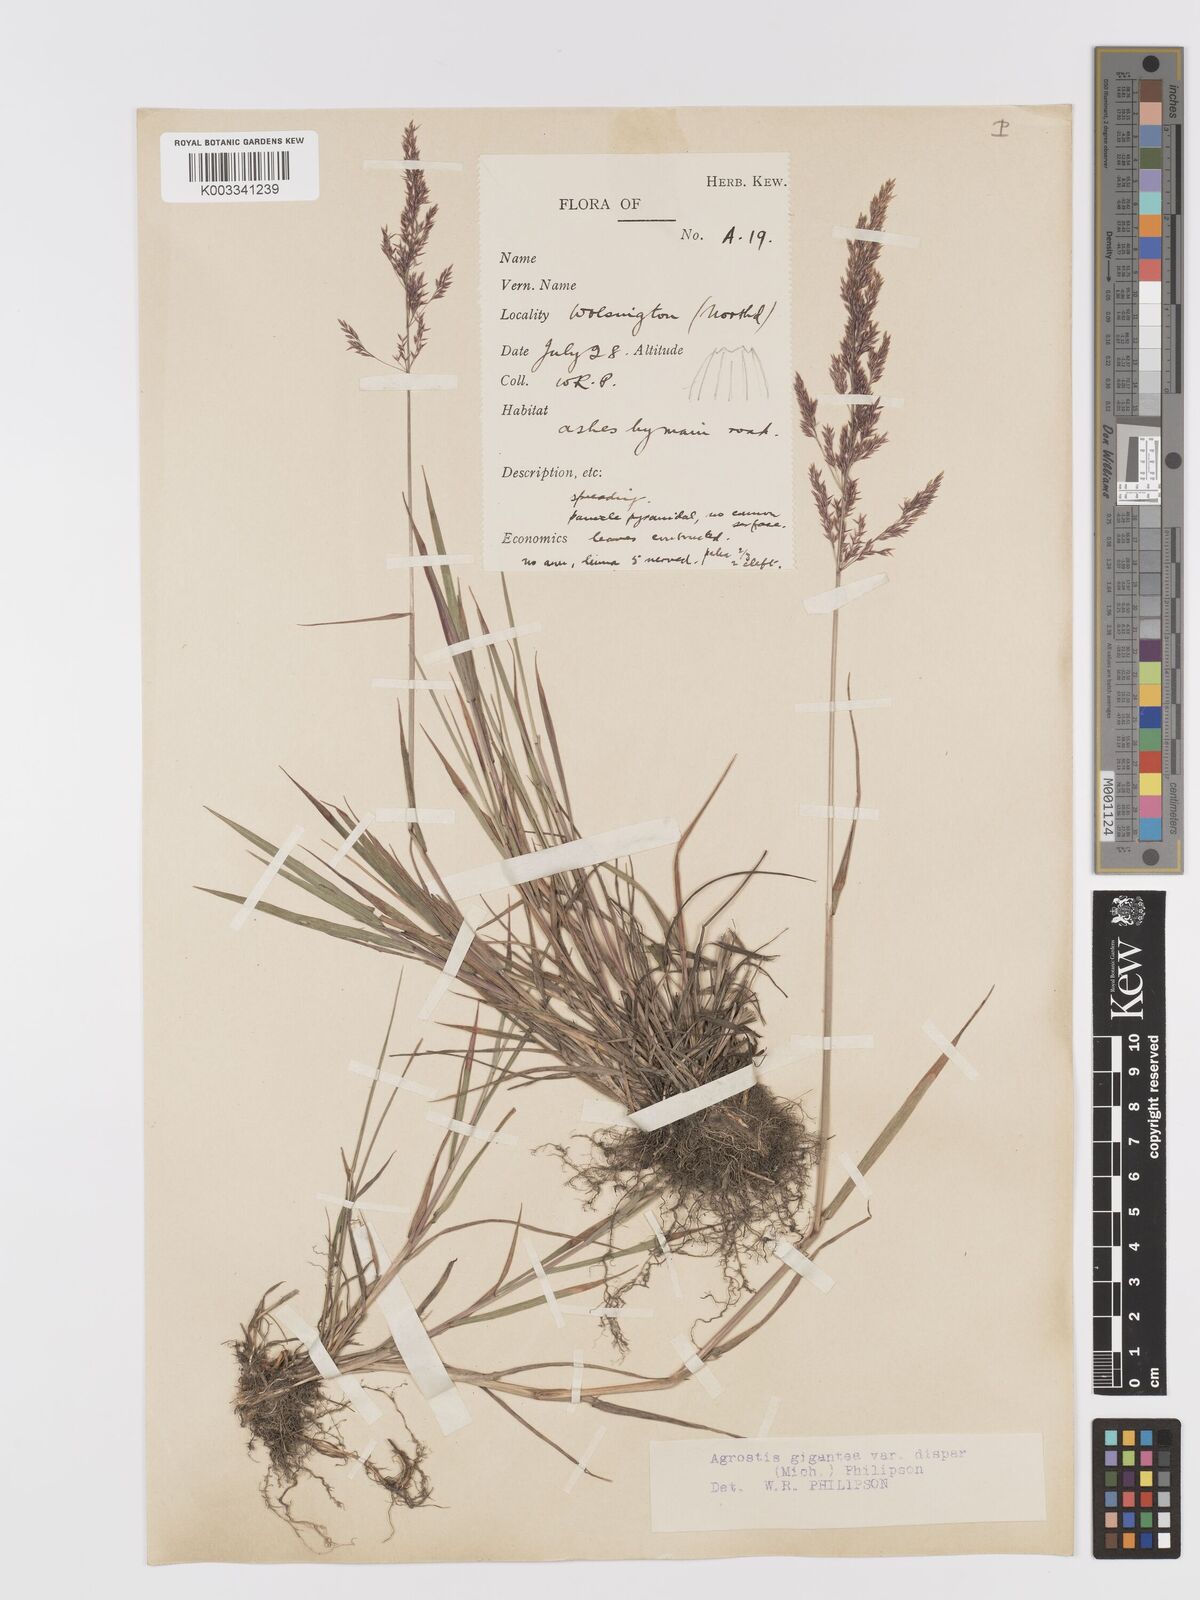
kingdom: Plantae
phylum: Tracheophyta
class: Liliopsida
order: Poales
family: Poaceae
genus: Agrostis
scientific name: Agrostis gigantea
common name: Black bent
